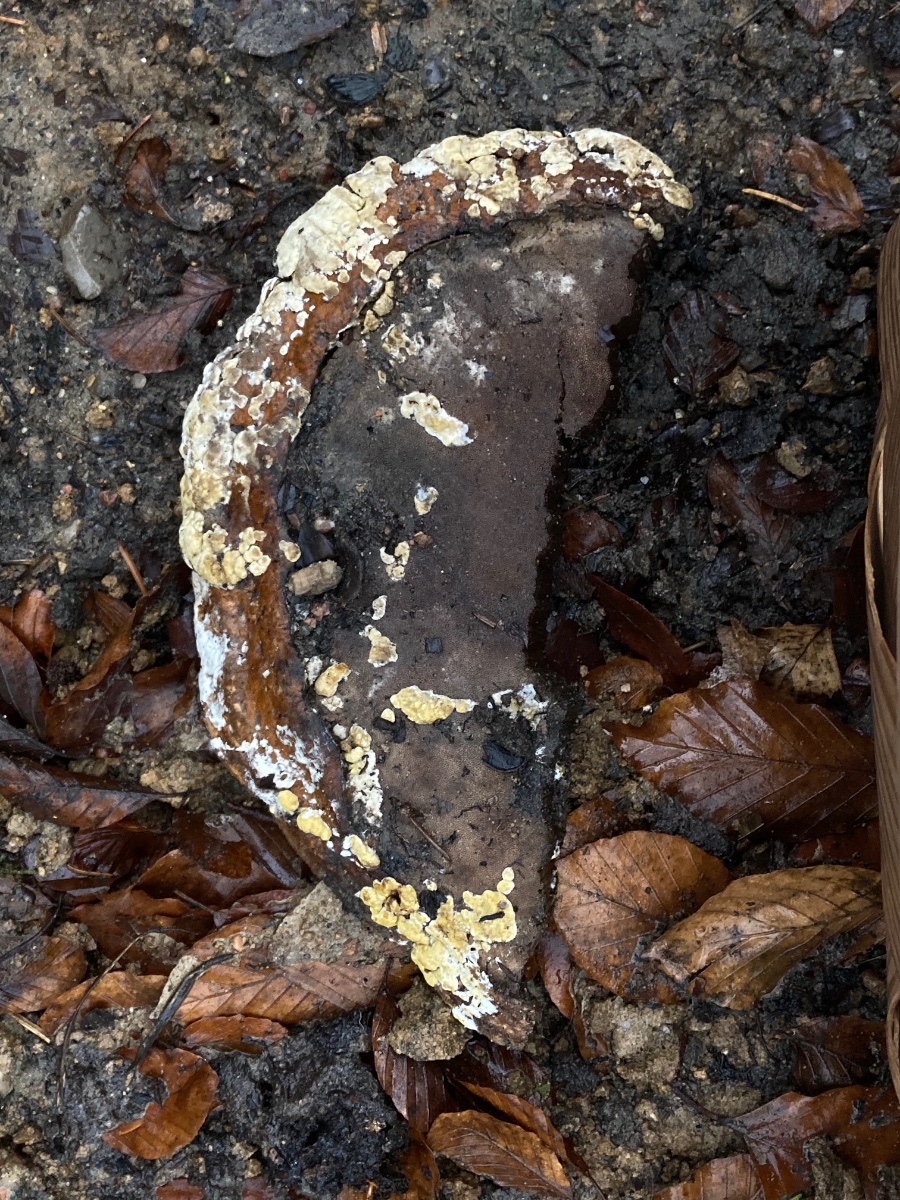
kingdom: Fungi
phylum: Ascomycota
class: Sordariomycetes
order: Hypocreales
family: Hypocreaceae
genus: Trichoderma
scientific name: Trichoderma pulvinatum
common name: snyltende kødkerne
